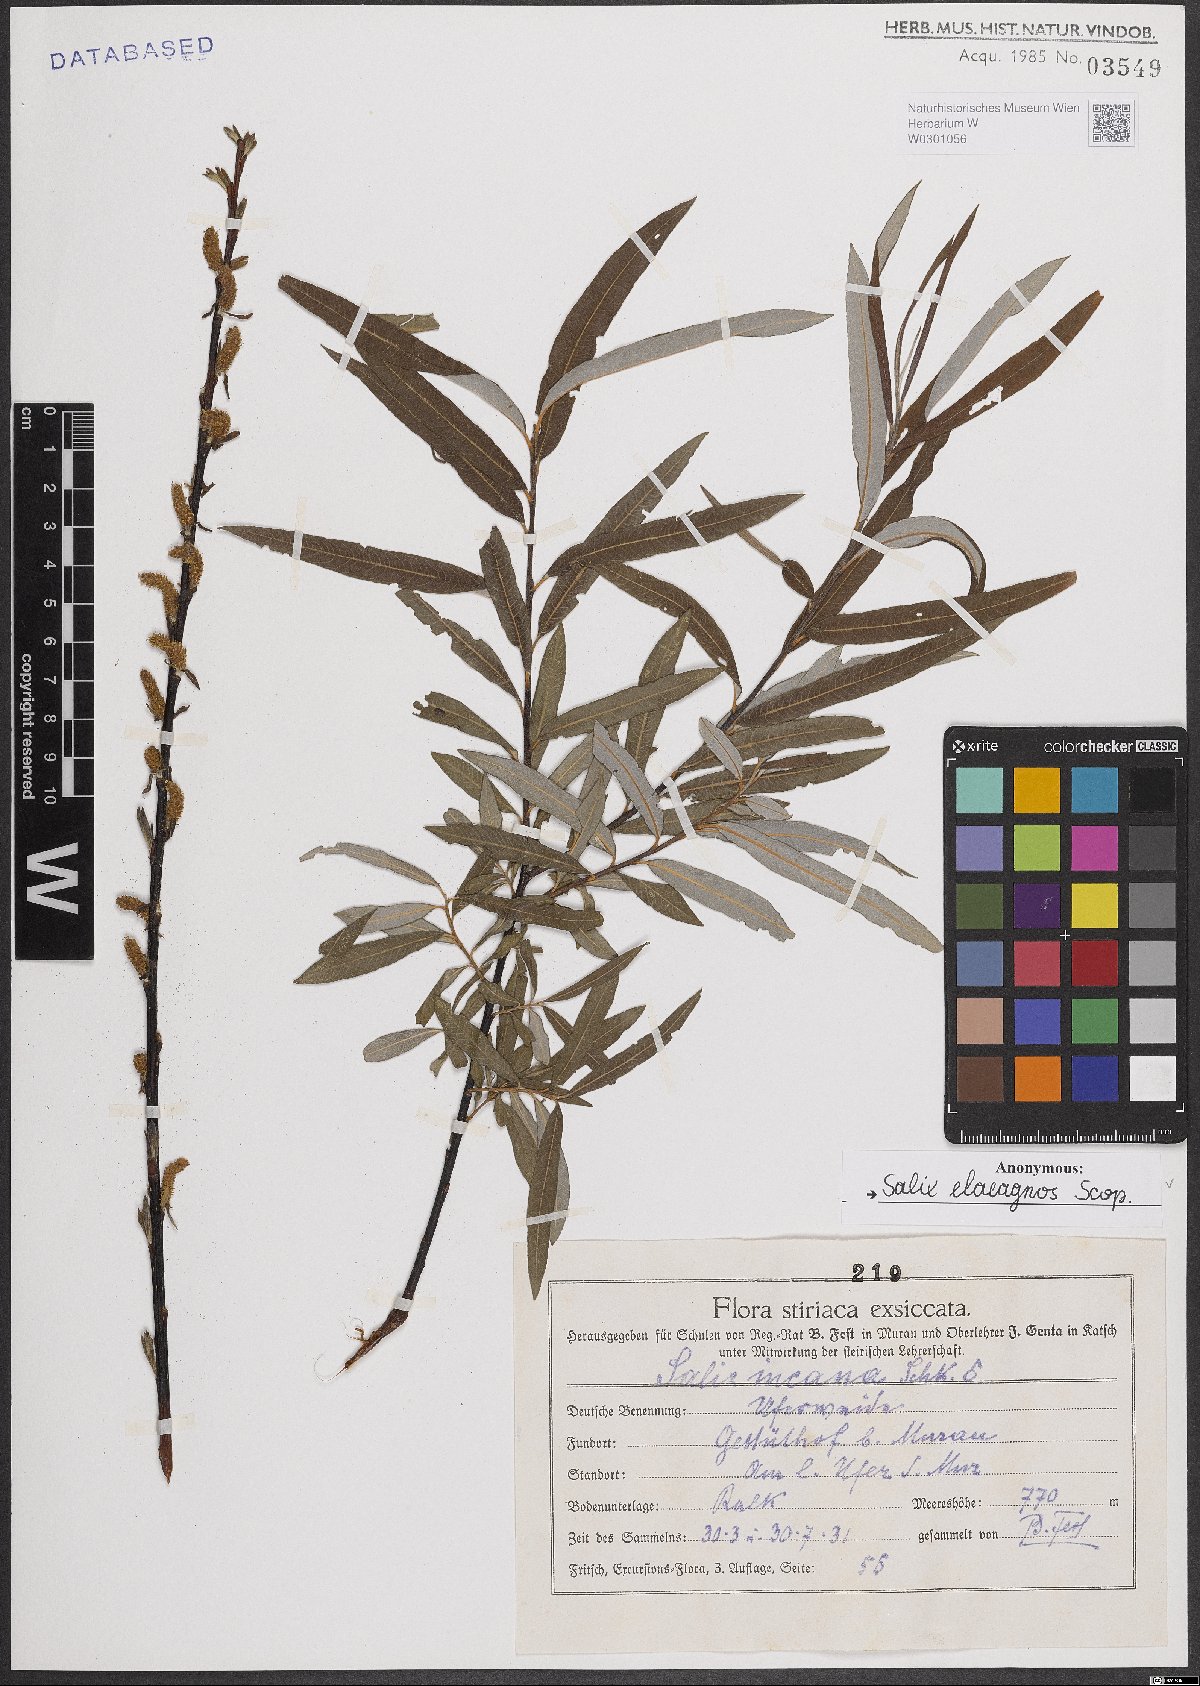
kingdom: Plantae
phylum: Tracheophyta
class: Magnoliopsida
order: Malpighiales
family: Salicaceae
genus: Salix
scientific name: Salix eleagnos
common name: Elaeagnus willow
